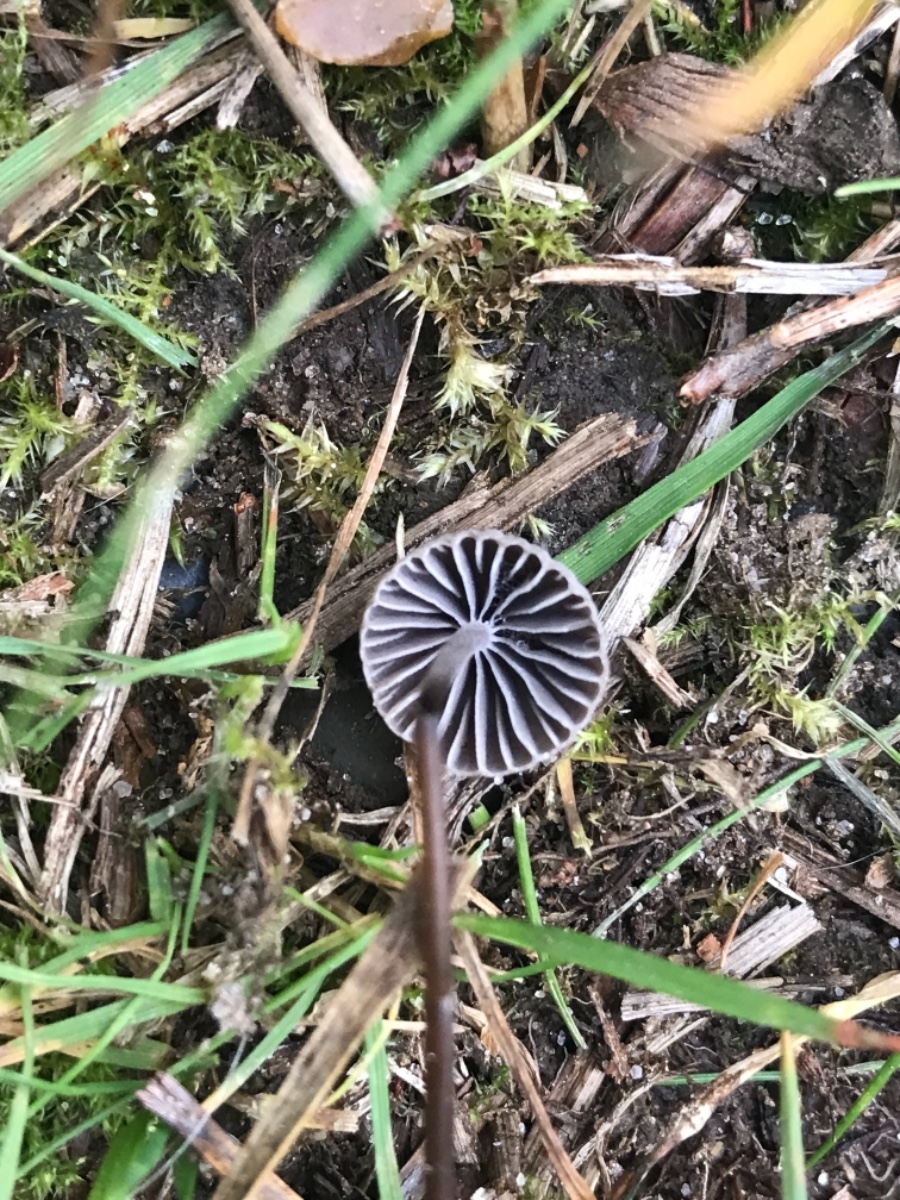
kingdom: Fungi
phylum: Basidiomycota
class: Agaricomycetes
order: Agaricales
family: Mycenaceae
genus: Mycena
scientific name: Mycena
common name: huesvamp
